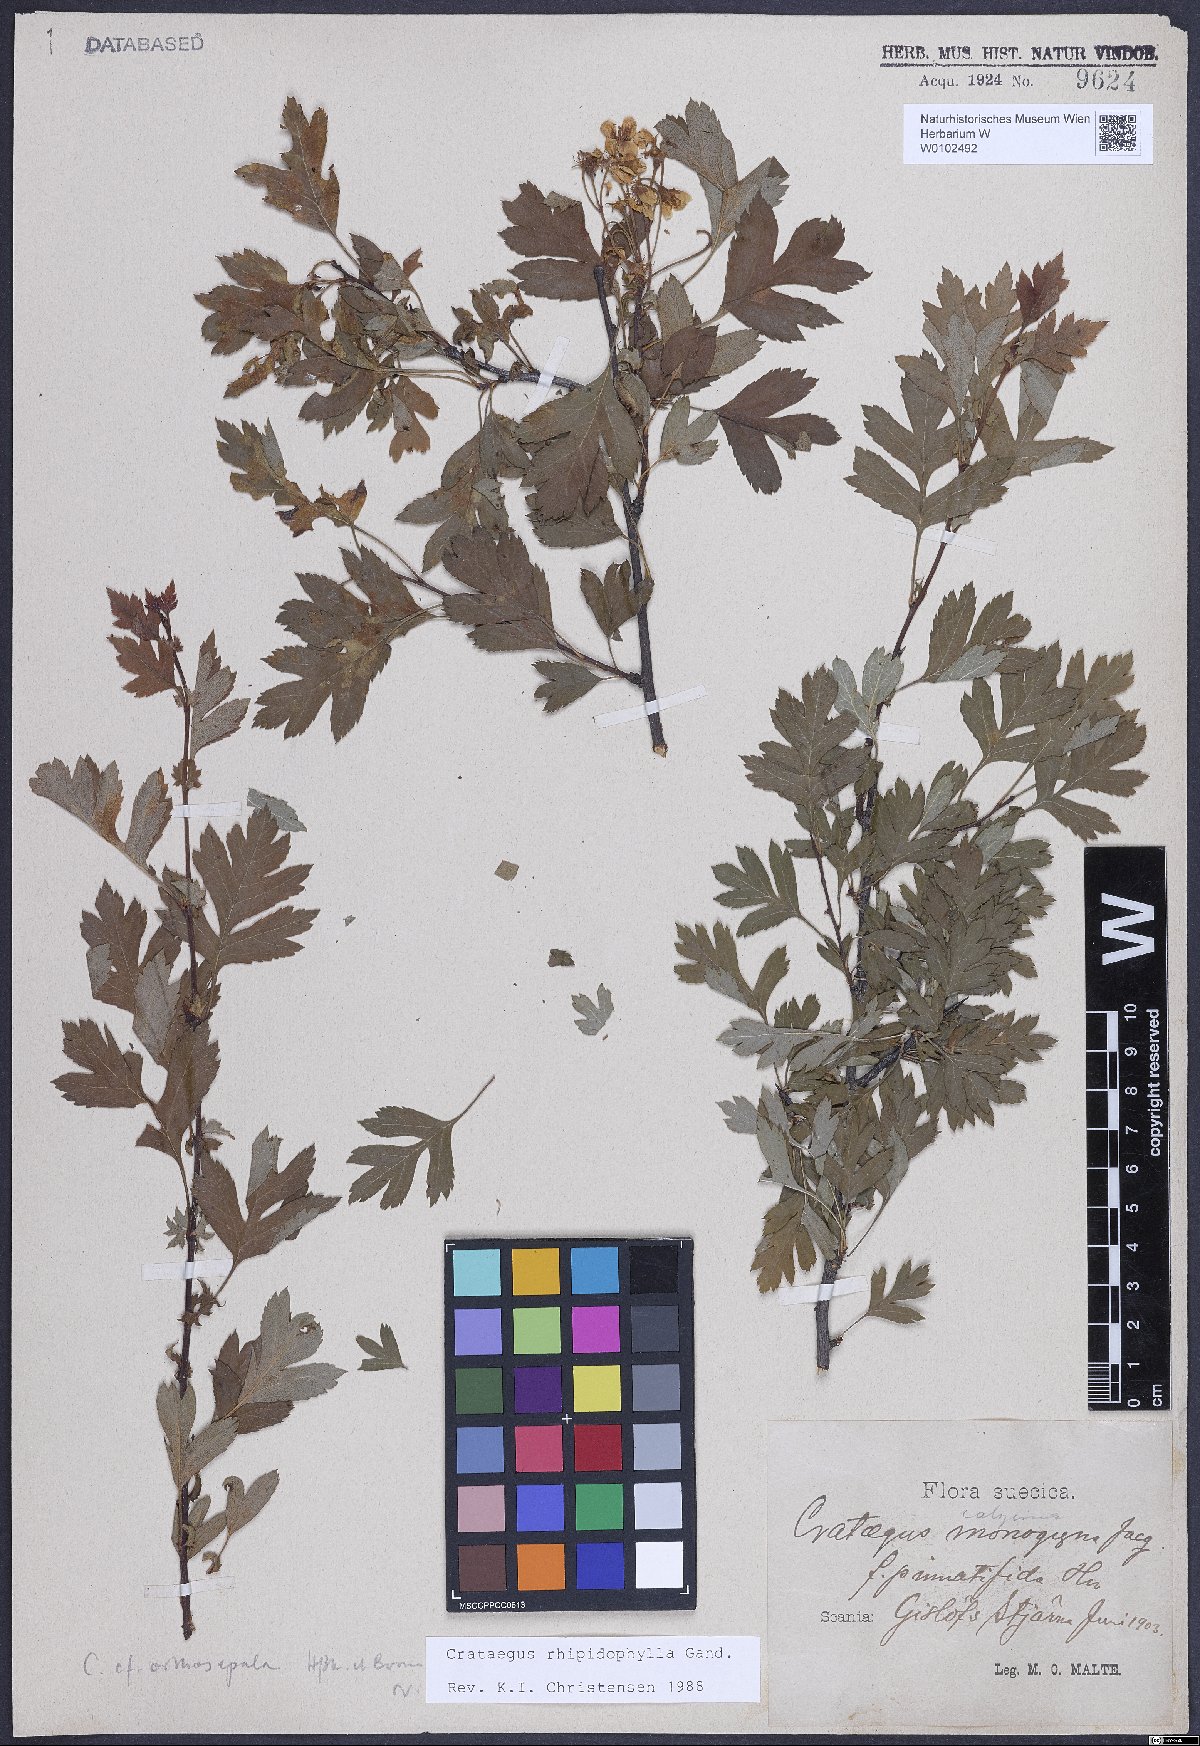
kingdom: Plantae
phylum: Tracheophyta
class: Magnoliopsida
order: Rosales
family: Rosaceae
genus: Crataegus
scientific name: Crataegus rhipidophylla
